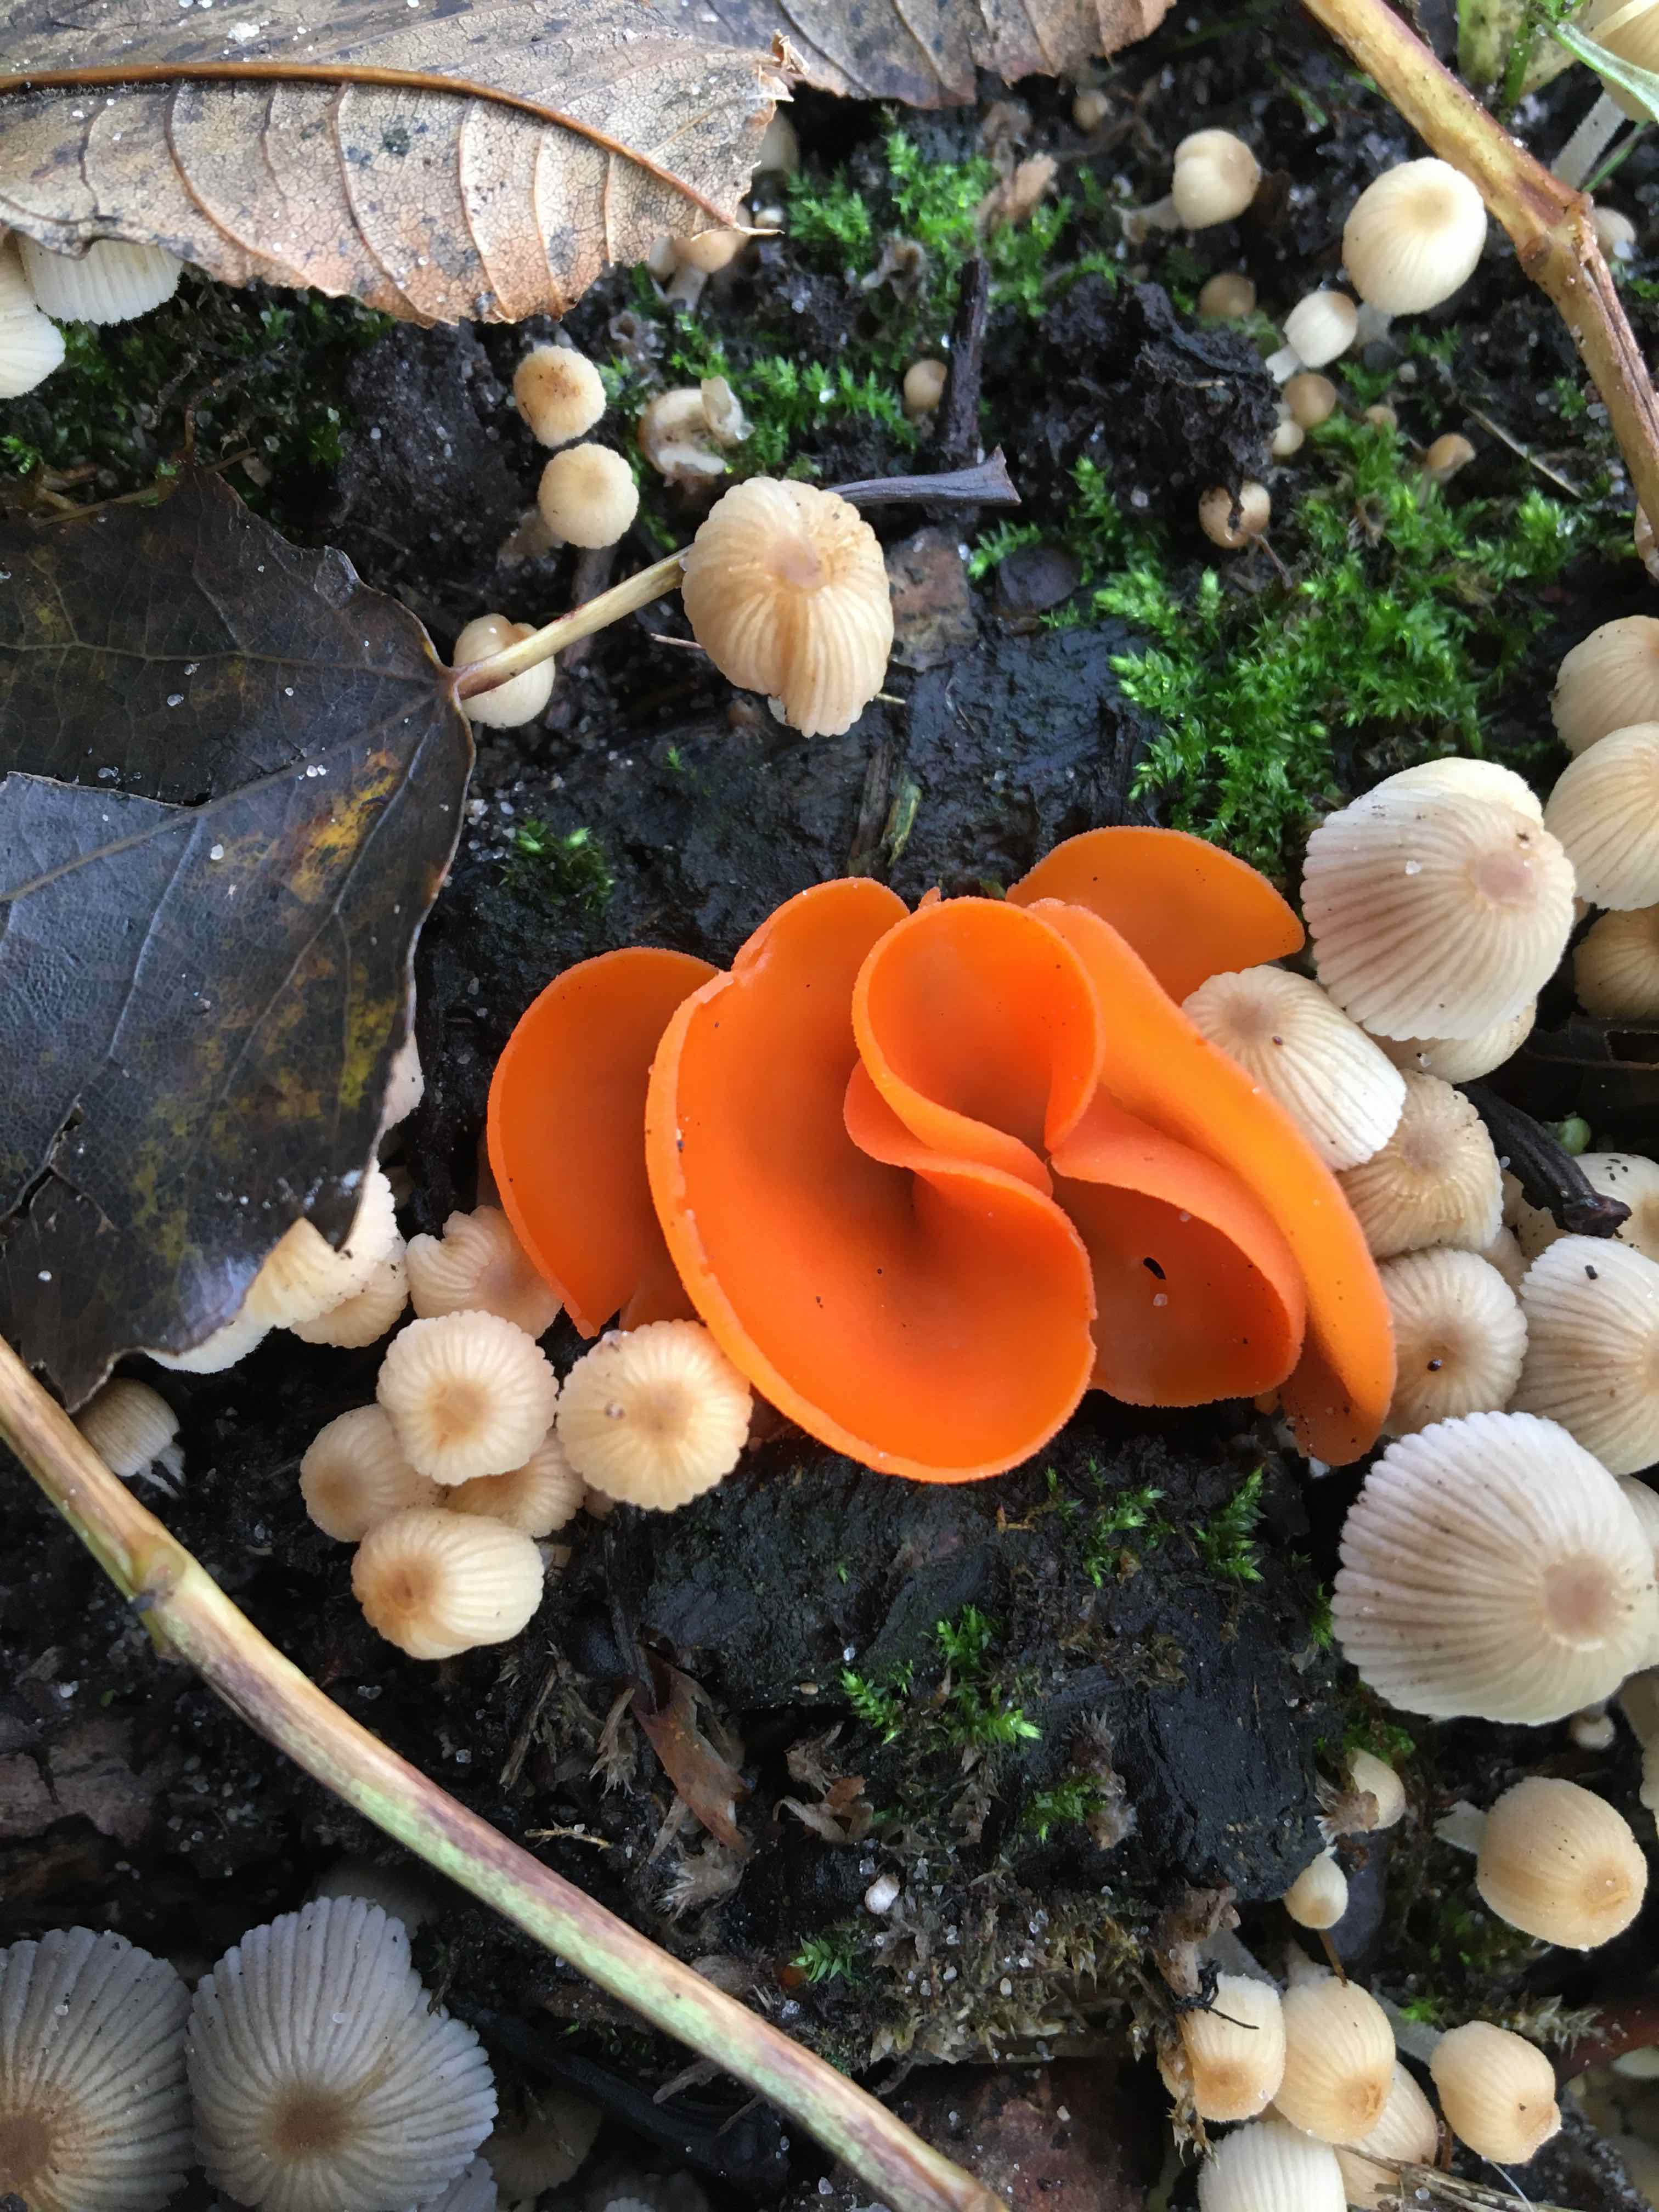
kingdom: Fungi
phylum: Ascomycota
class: Pezizomycetes
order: Pezizales
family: Pyronemataceae
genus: Aleuria
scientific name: Aleuria aurantia
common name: almindelig orangebæger
